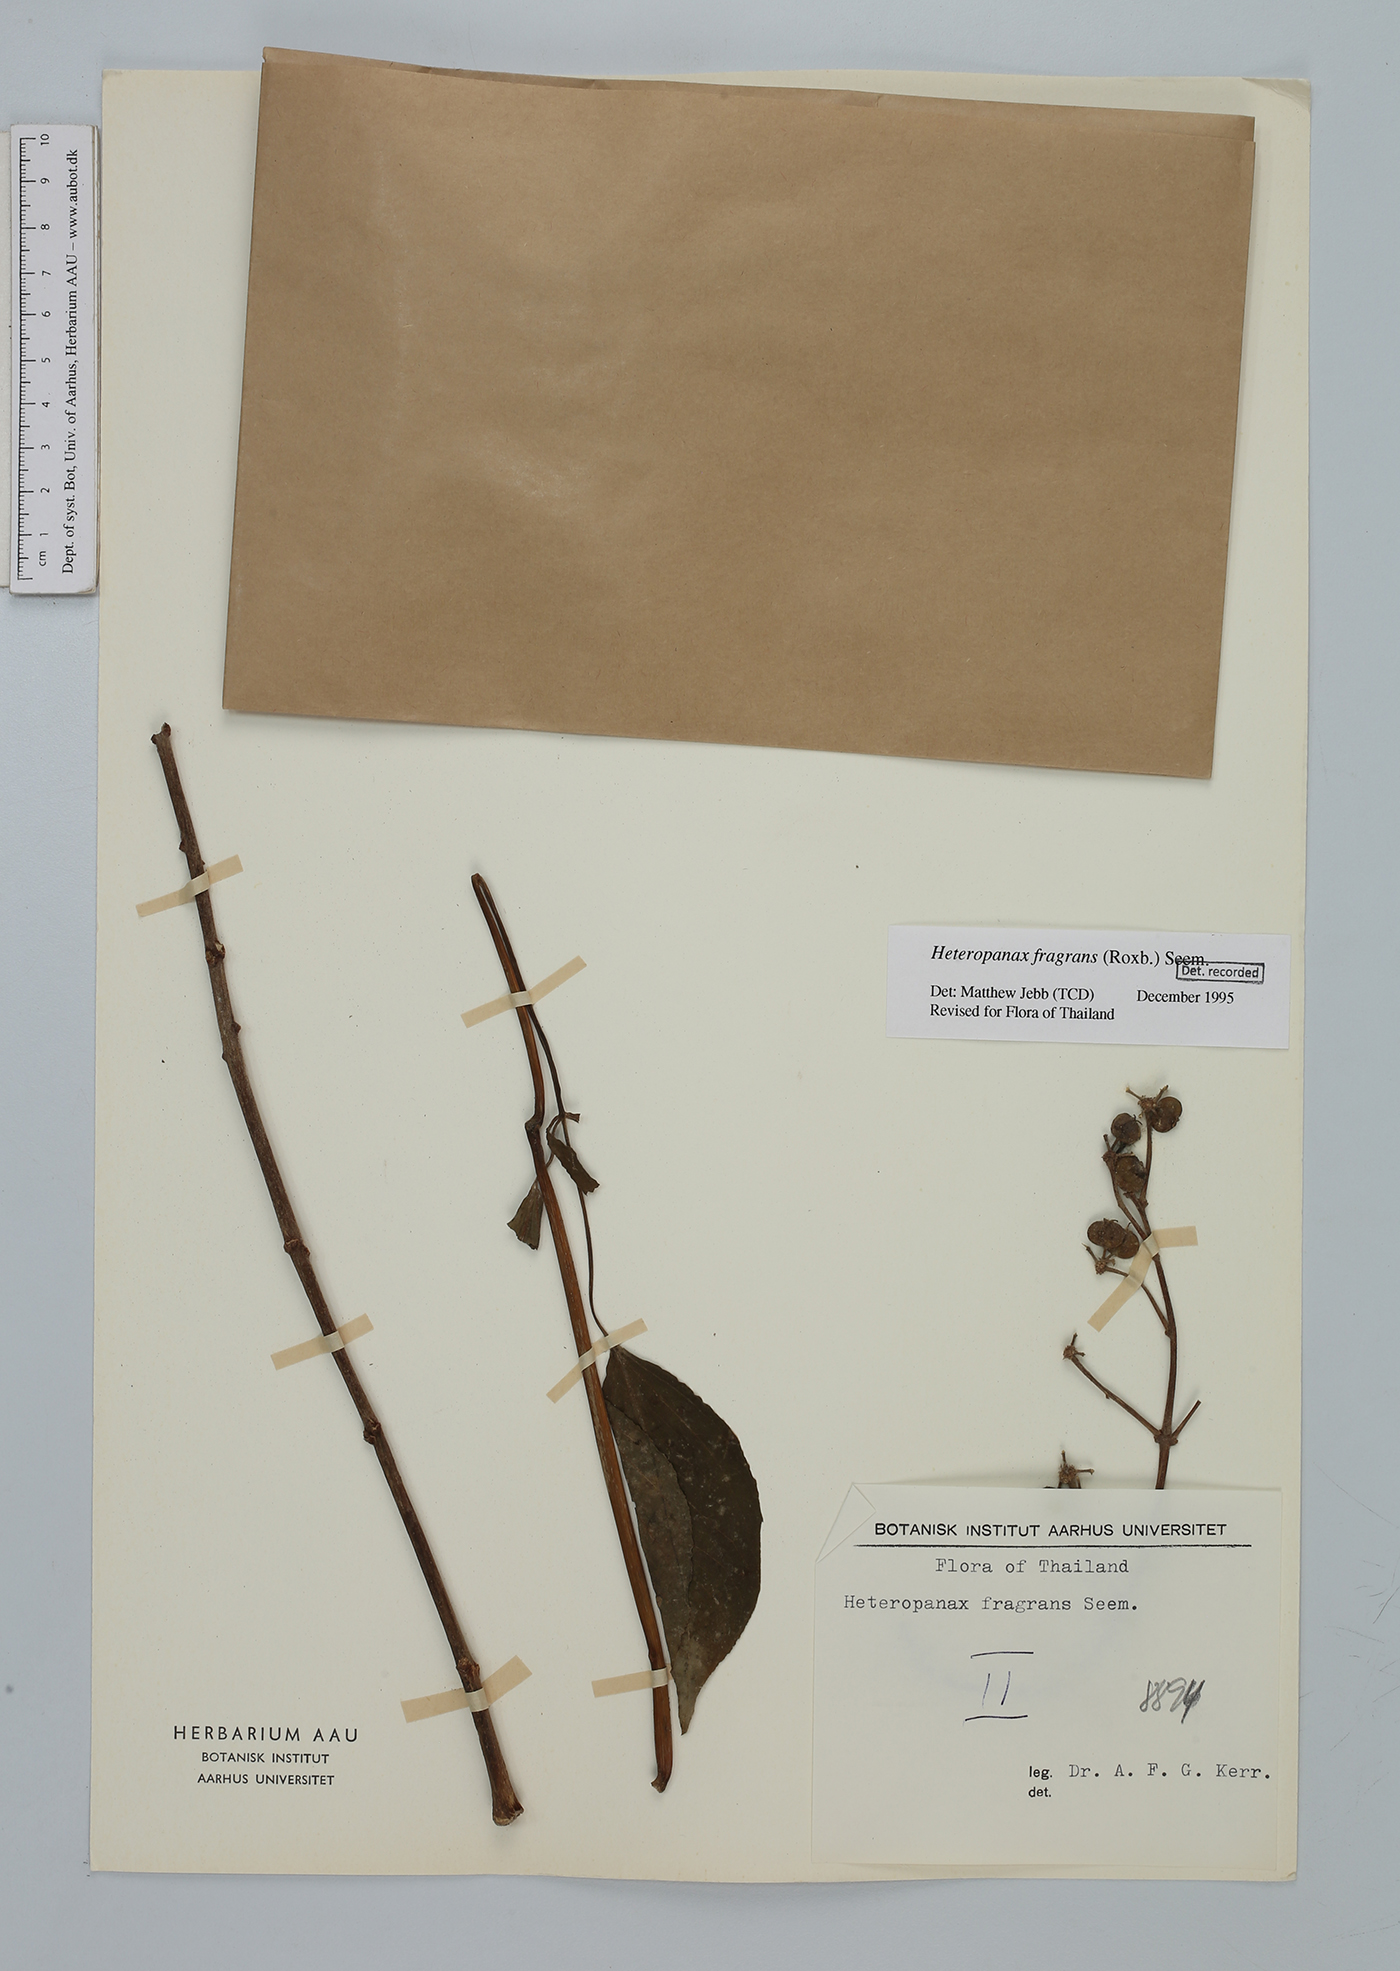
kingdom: Plantae
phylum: Tracheophyta
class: Magnoliopsida
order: Apiales
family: Araliaceae
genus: Heteropanax
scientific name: Heteropanax fragrans
